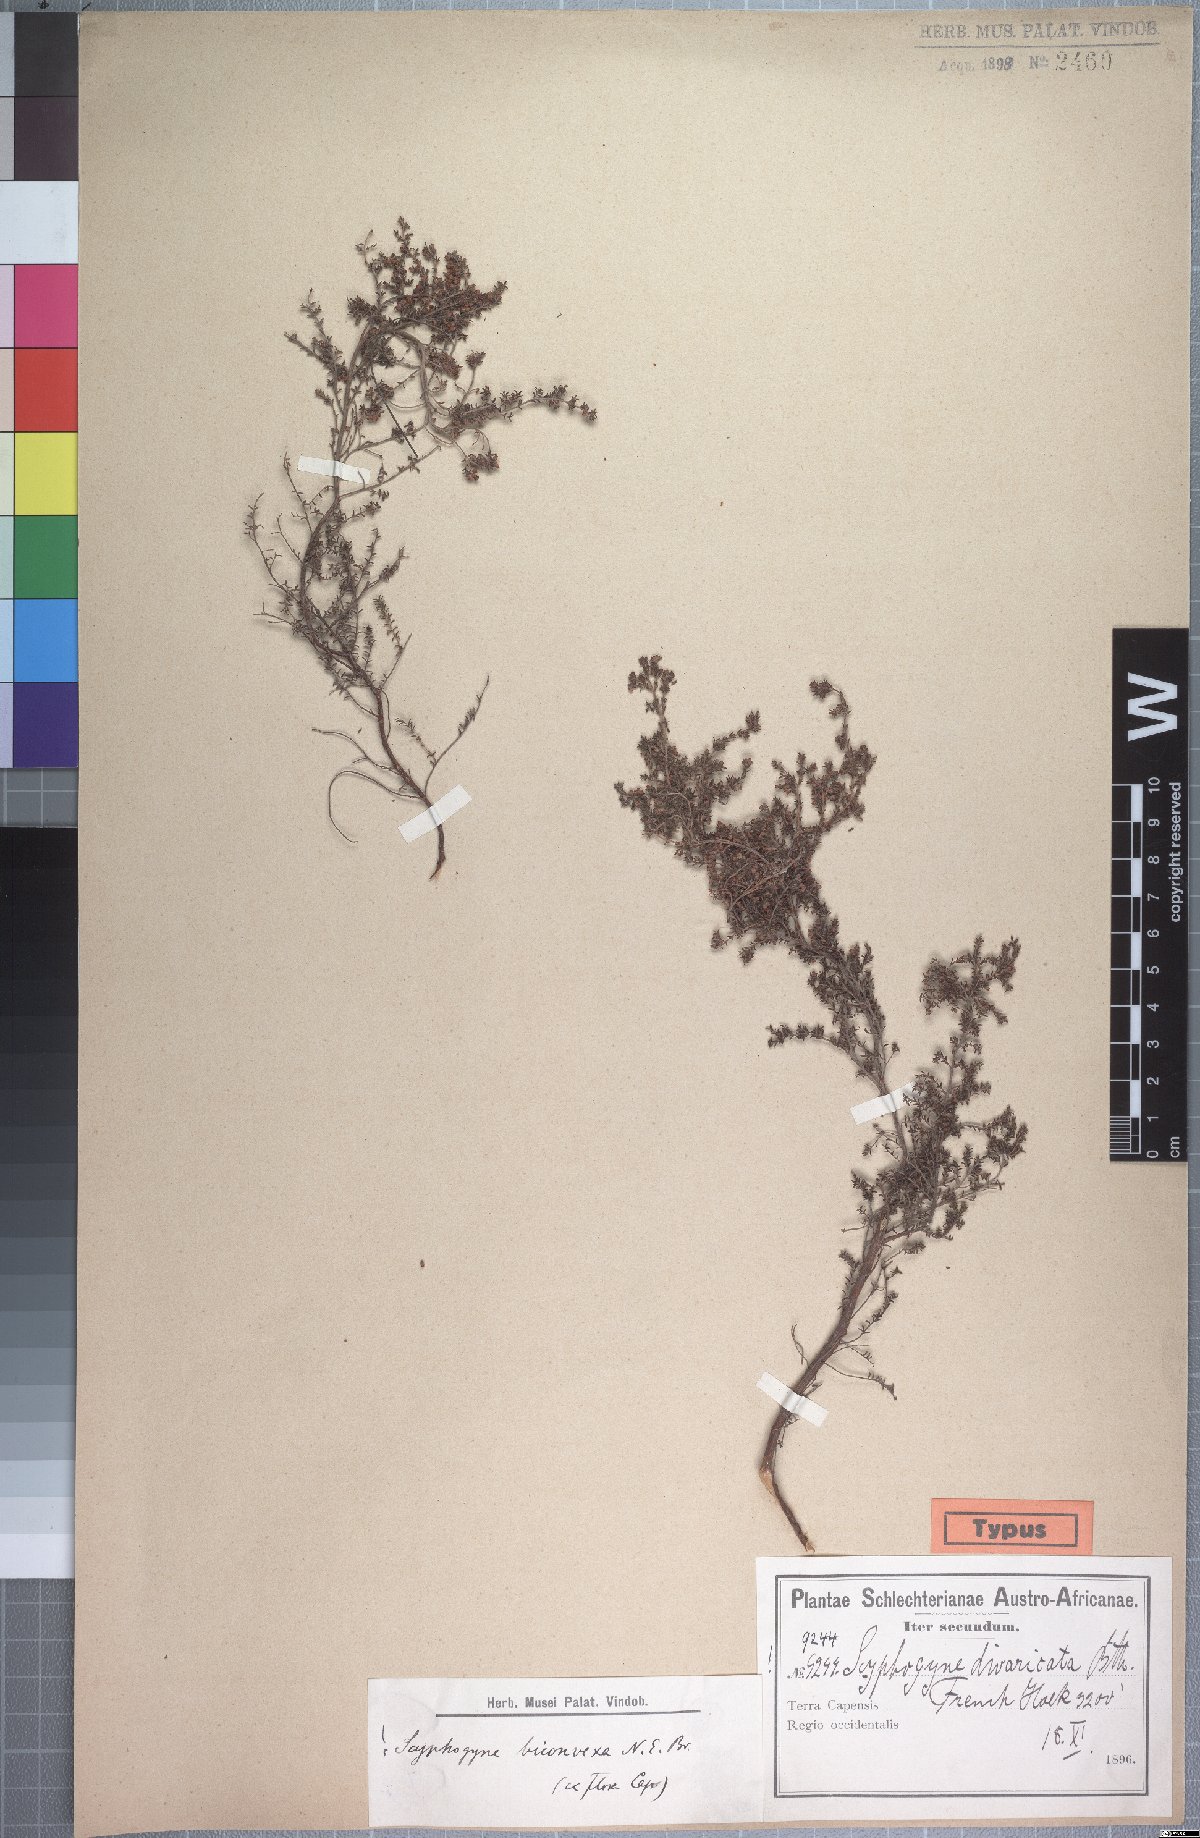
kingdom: Plantae
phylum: Tracheophyta
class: Magnoliopsida
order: Ericales
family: Ericaceae
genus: Erica
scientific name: Erica rigidula
